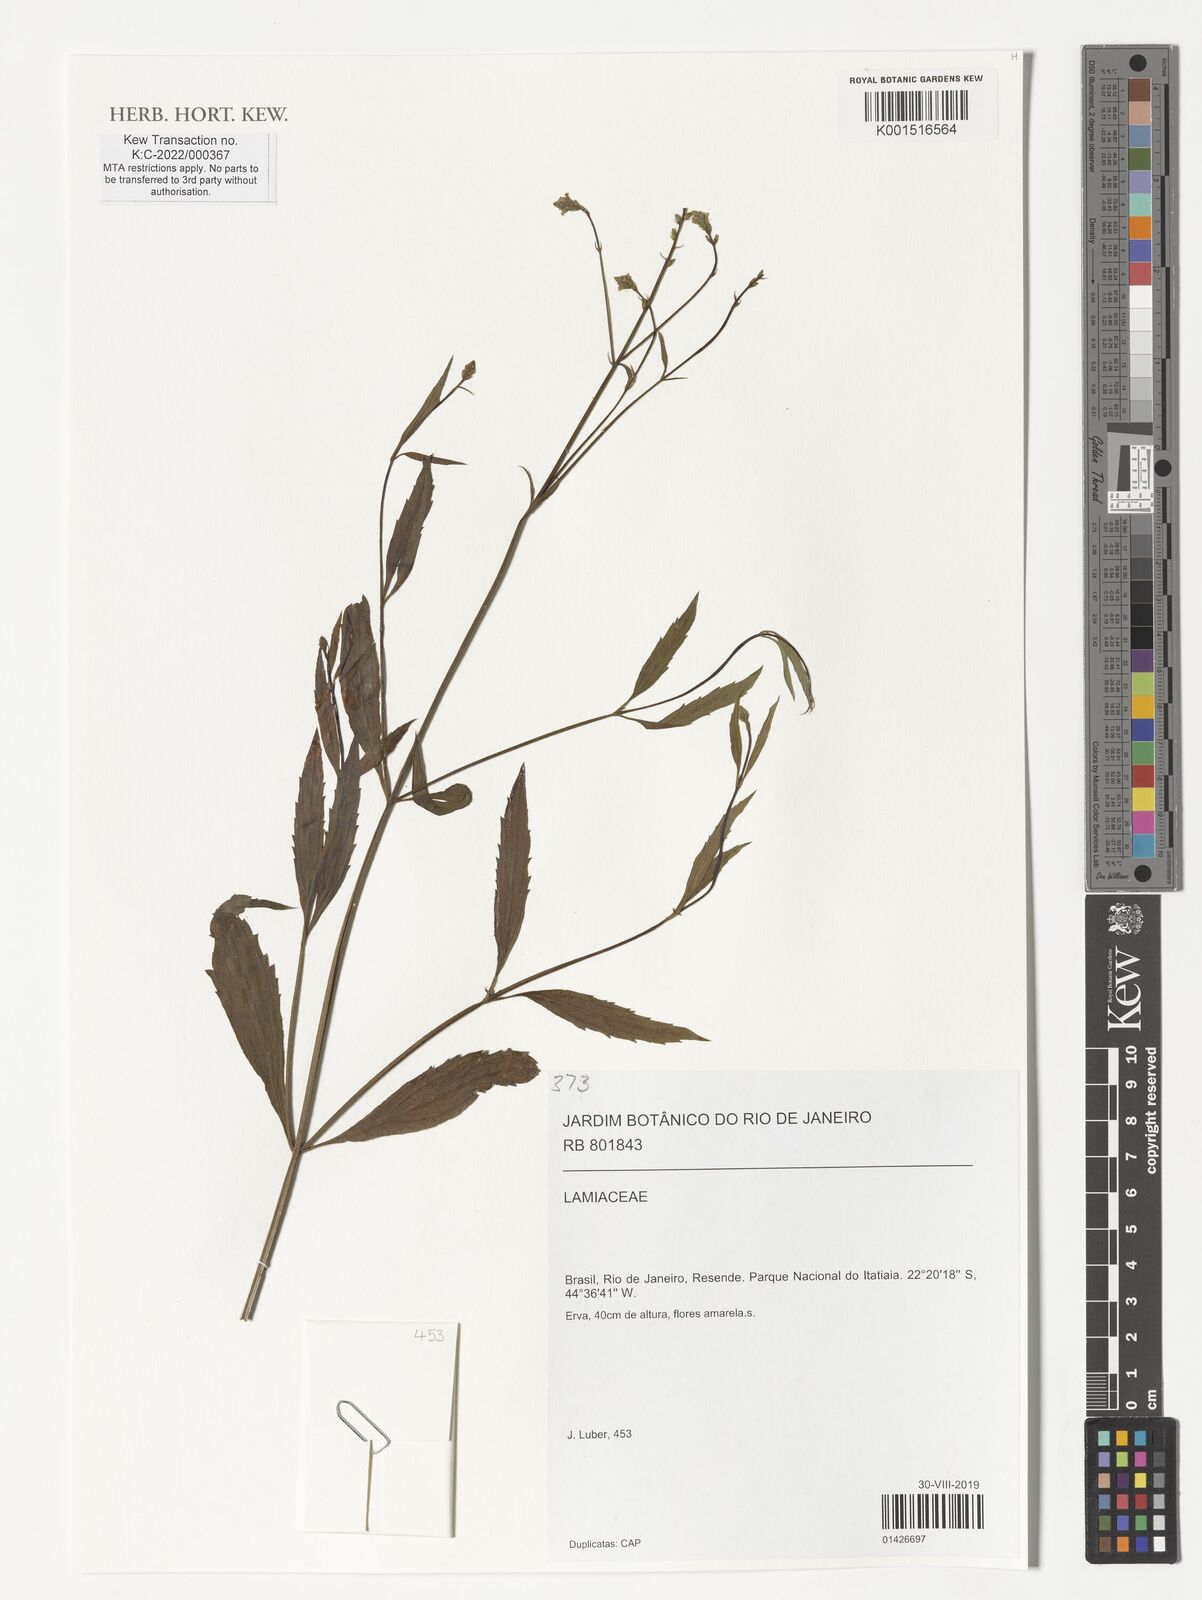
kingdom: Plantae
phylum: Tracheophyta
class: Magnoliopsida
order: Lamiales
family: Lamiaceae
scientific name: Lamiaceae
